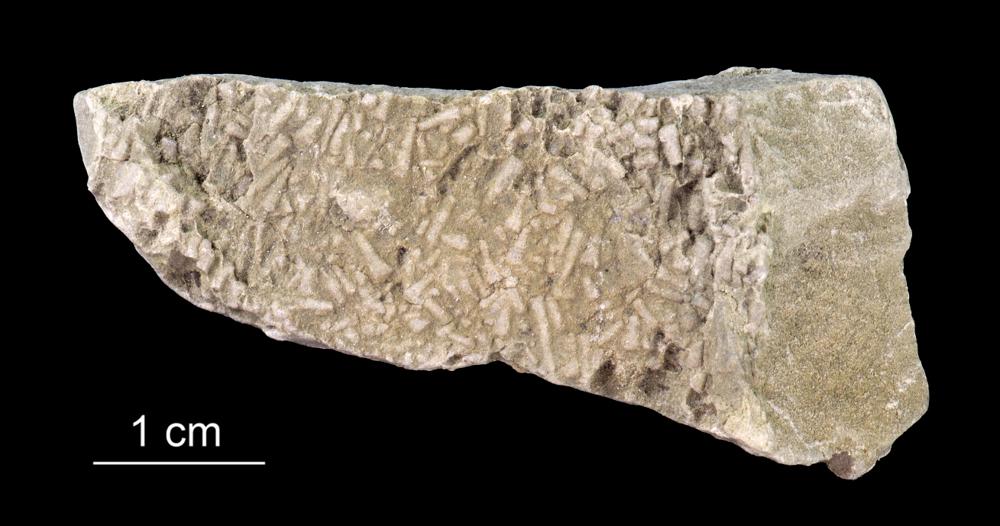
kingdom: Animalia
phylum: Annelida
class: Polychaeta
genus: Volborthella
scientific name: Volborthella tenuis
